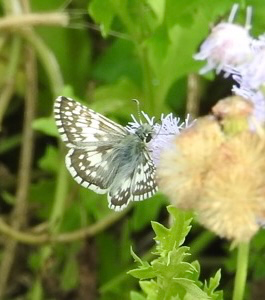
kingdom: Animalia
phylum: Arthropoda
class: Insecta
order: Lepidoptera
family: Hesperiidae
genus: Pyrgus
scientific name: Pyrgus communis
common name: White Checkered-Skipper
